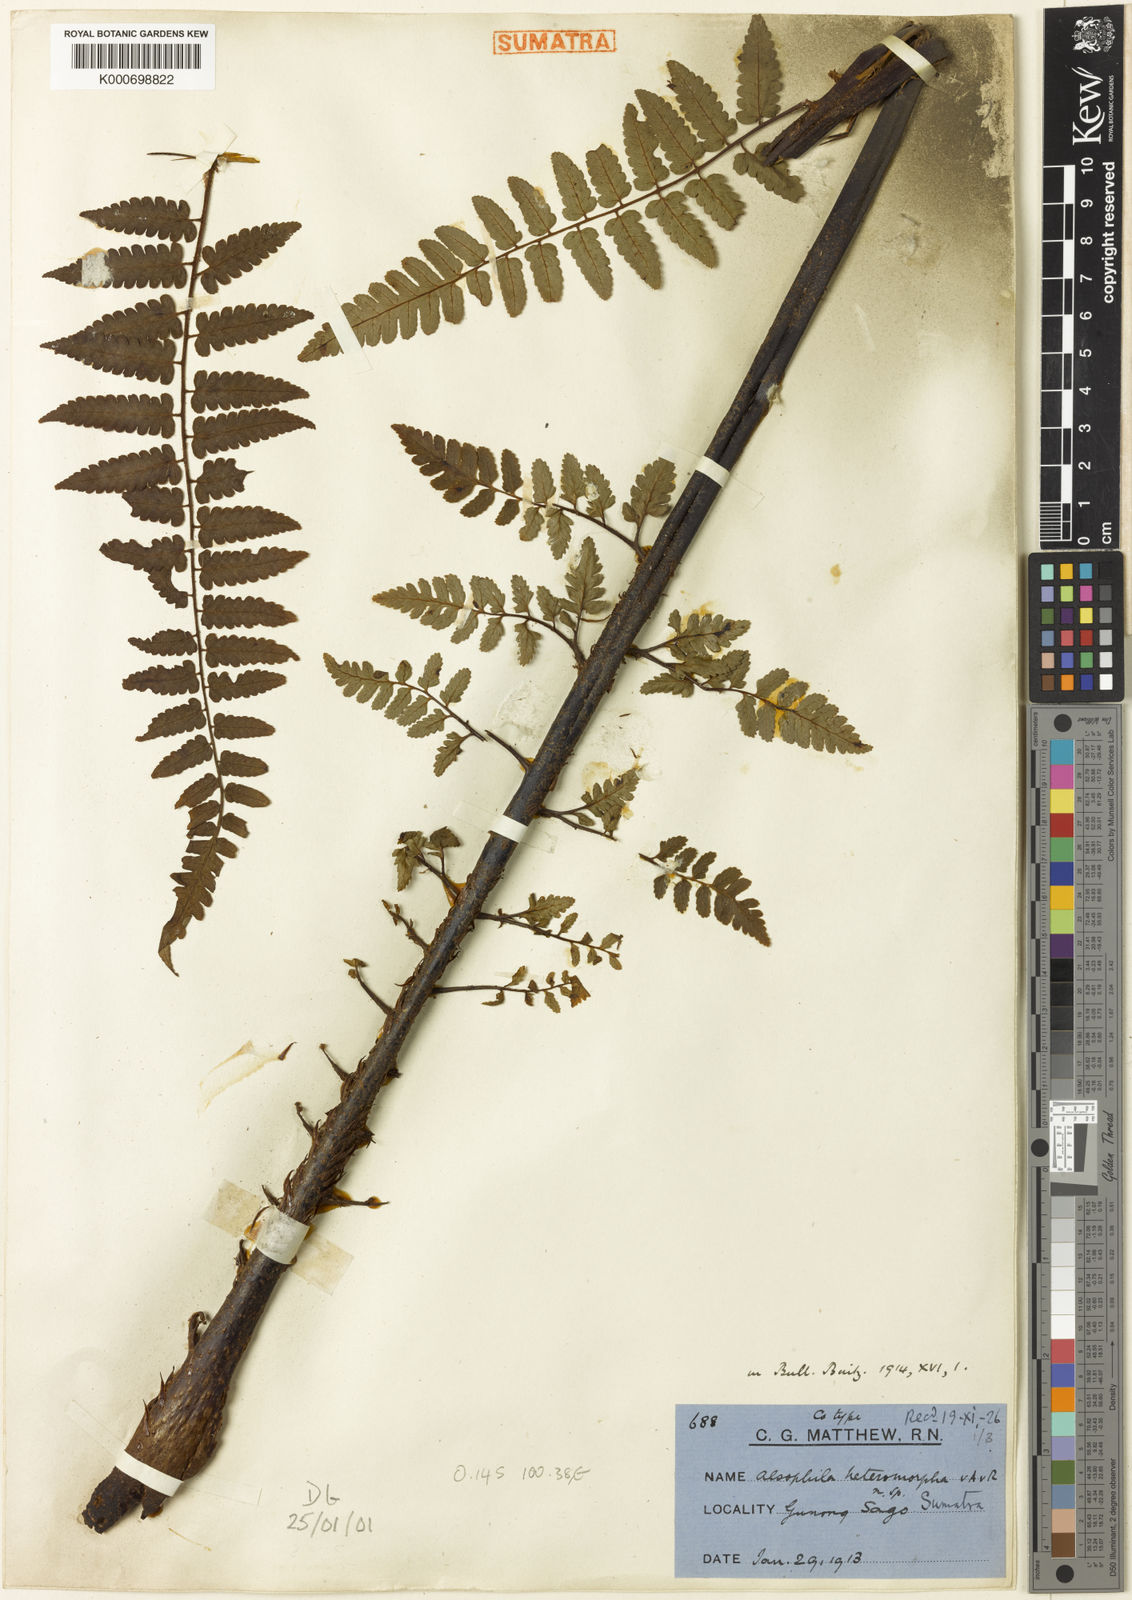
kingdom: Plantae
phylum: Tracheophyta
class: Polypodiopsida
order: Cyatheales
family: Cyatheaceae
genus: Gymnosphaera
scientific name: Gymnosphaera commutata
